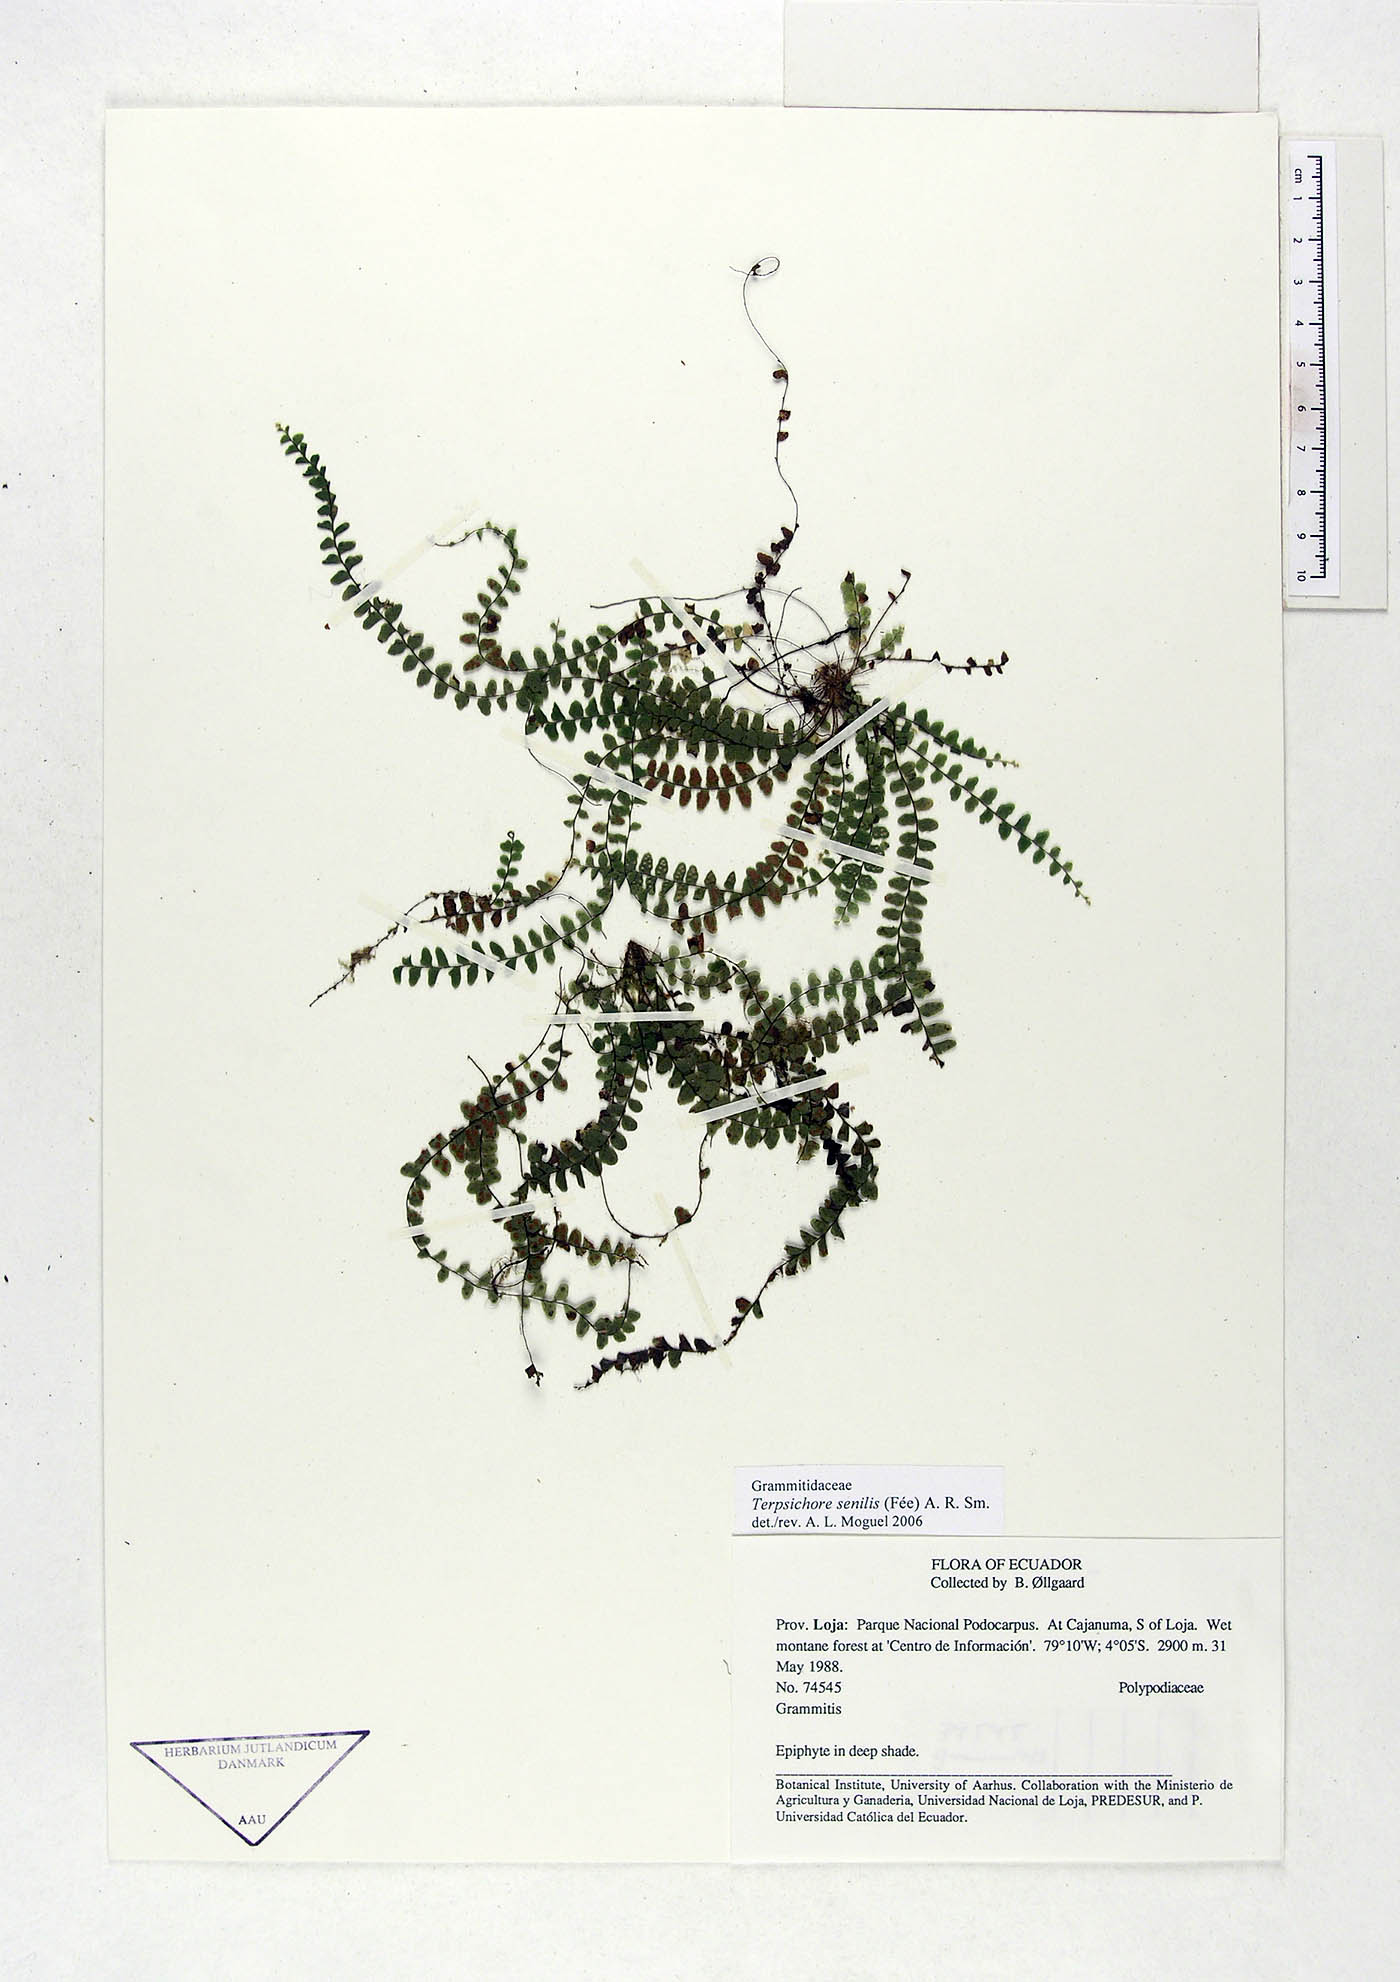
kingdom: Plantae
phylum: Tracheophyta
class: Polypodiopsida
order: Polypodiales
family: Polypodiaceae
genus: Alansmia
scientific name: Alansmia senilis
